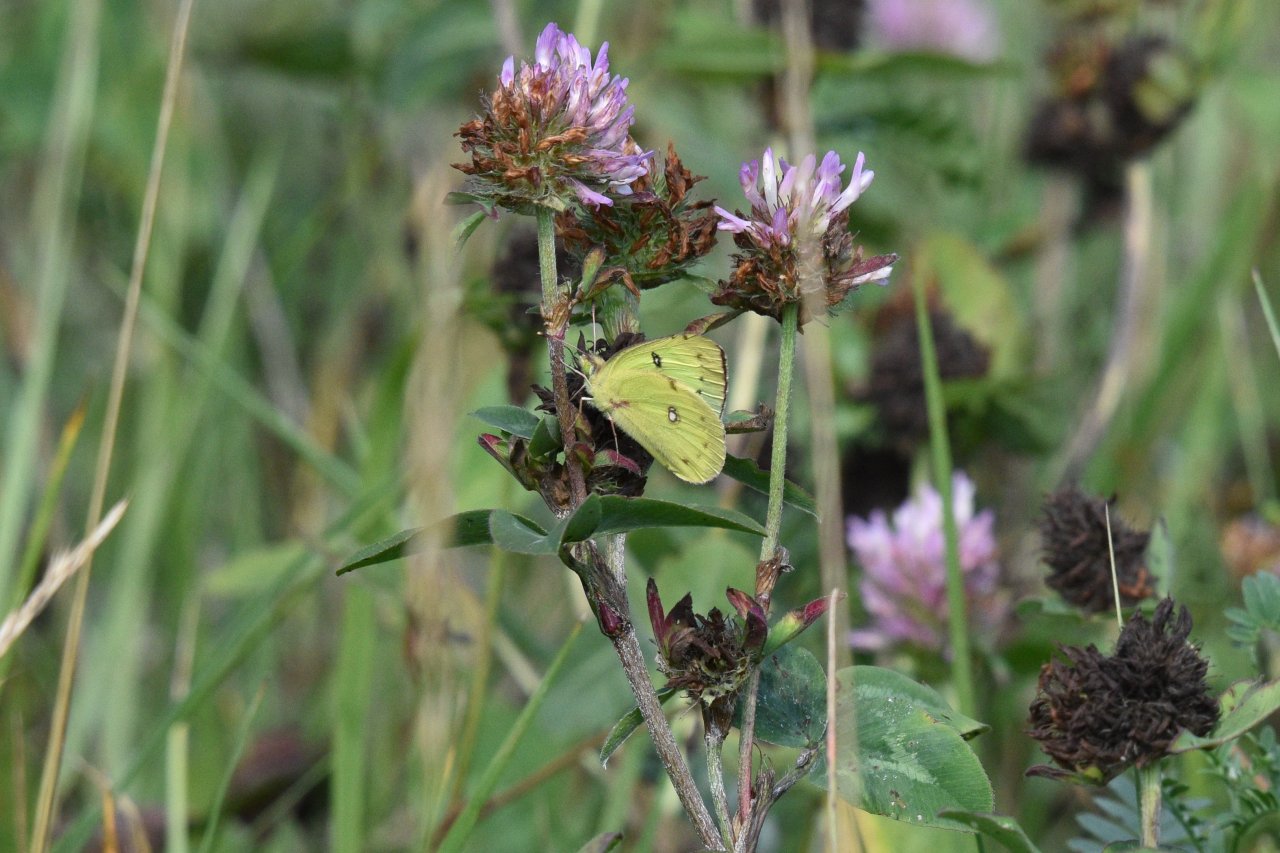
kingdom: Animalia
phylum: Arthropoda
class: Insecta
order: Lepidoptera
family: Pieridae
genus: Colias
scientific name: Colias philodice
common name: Clouded Sulphur
